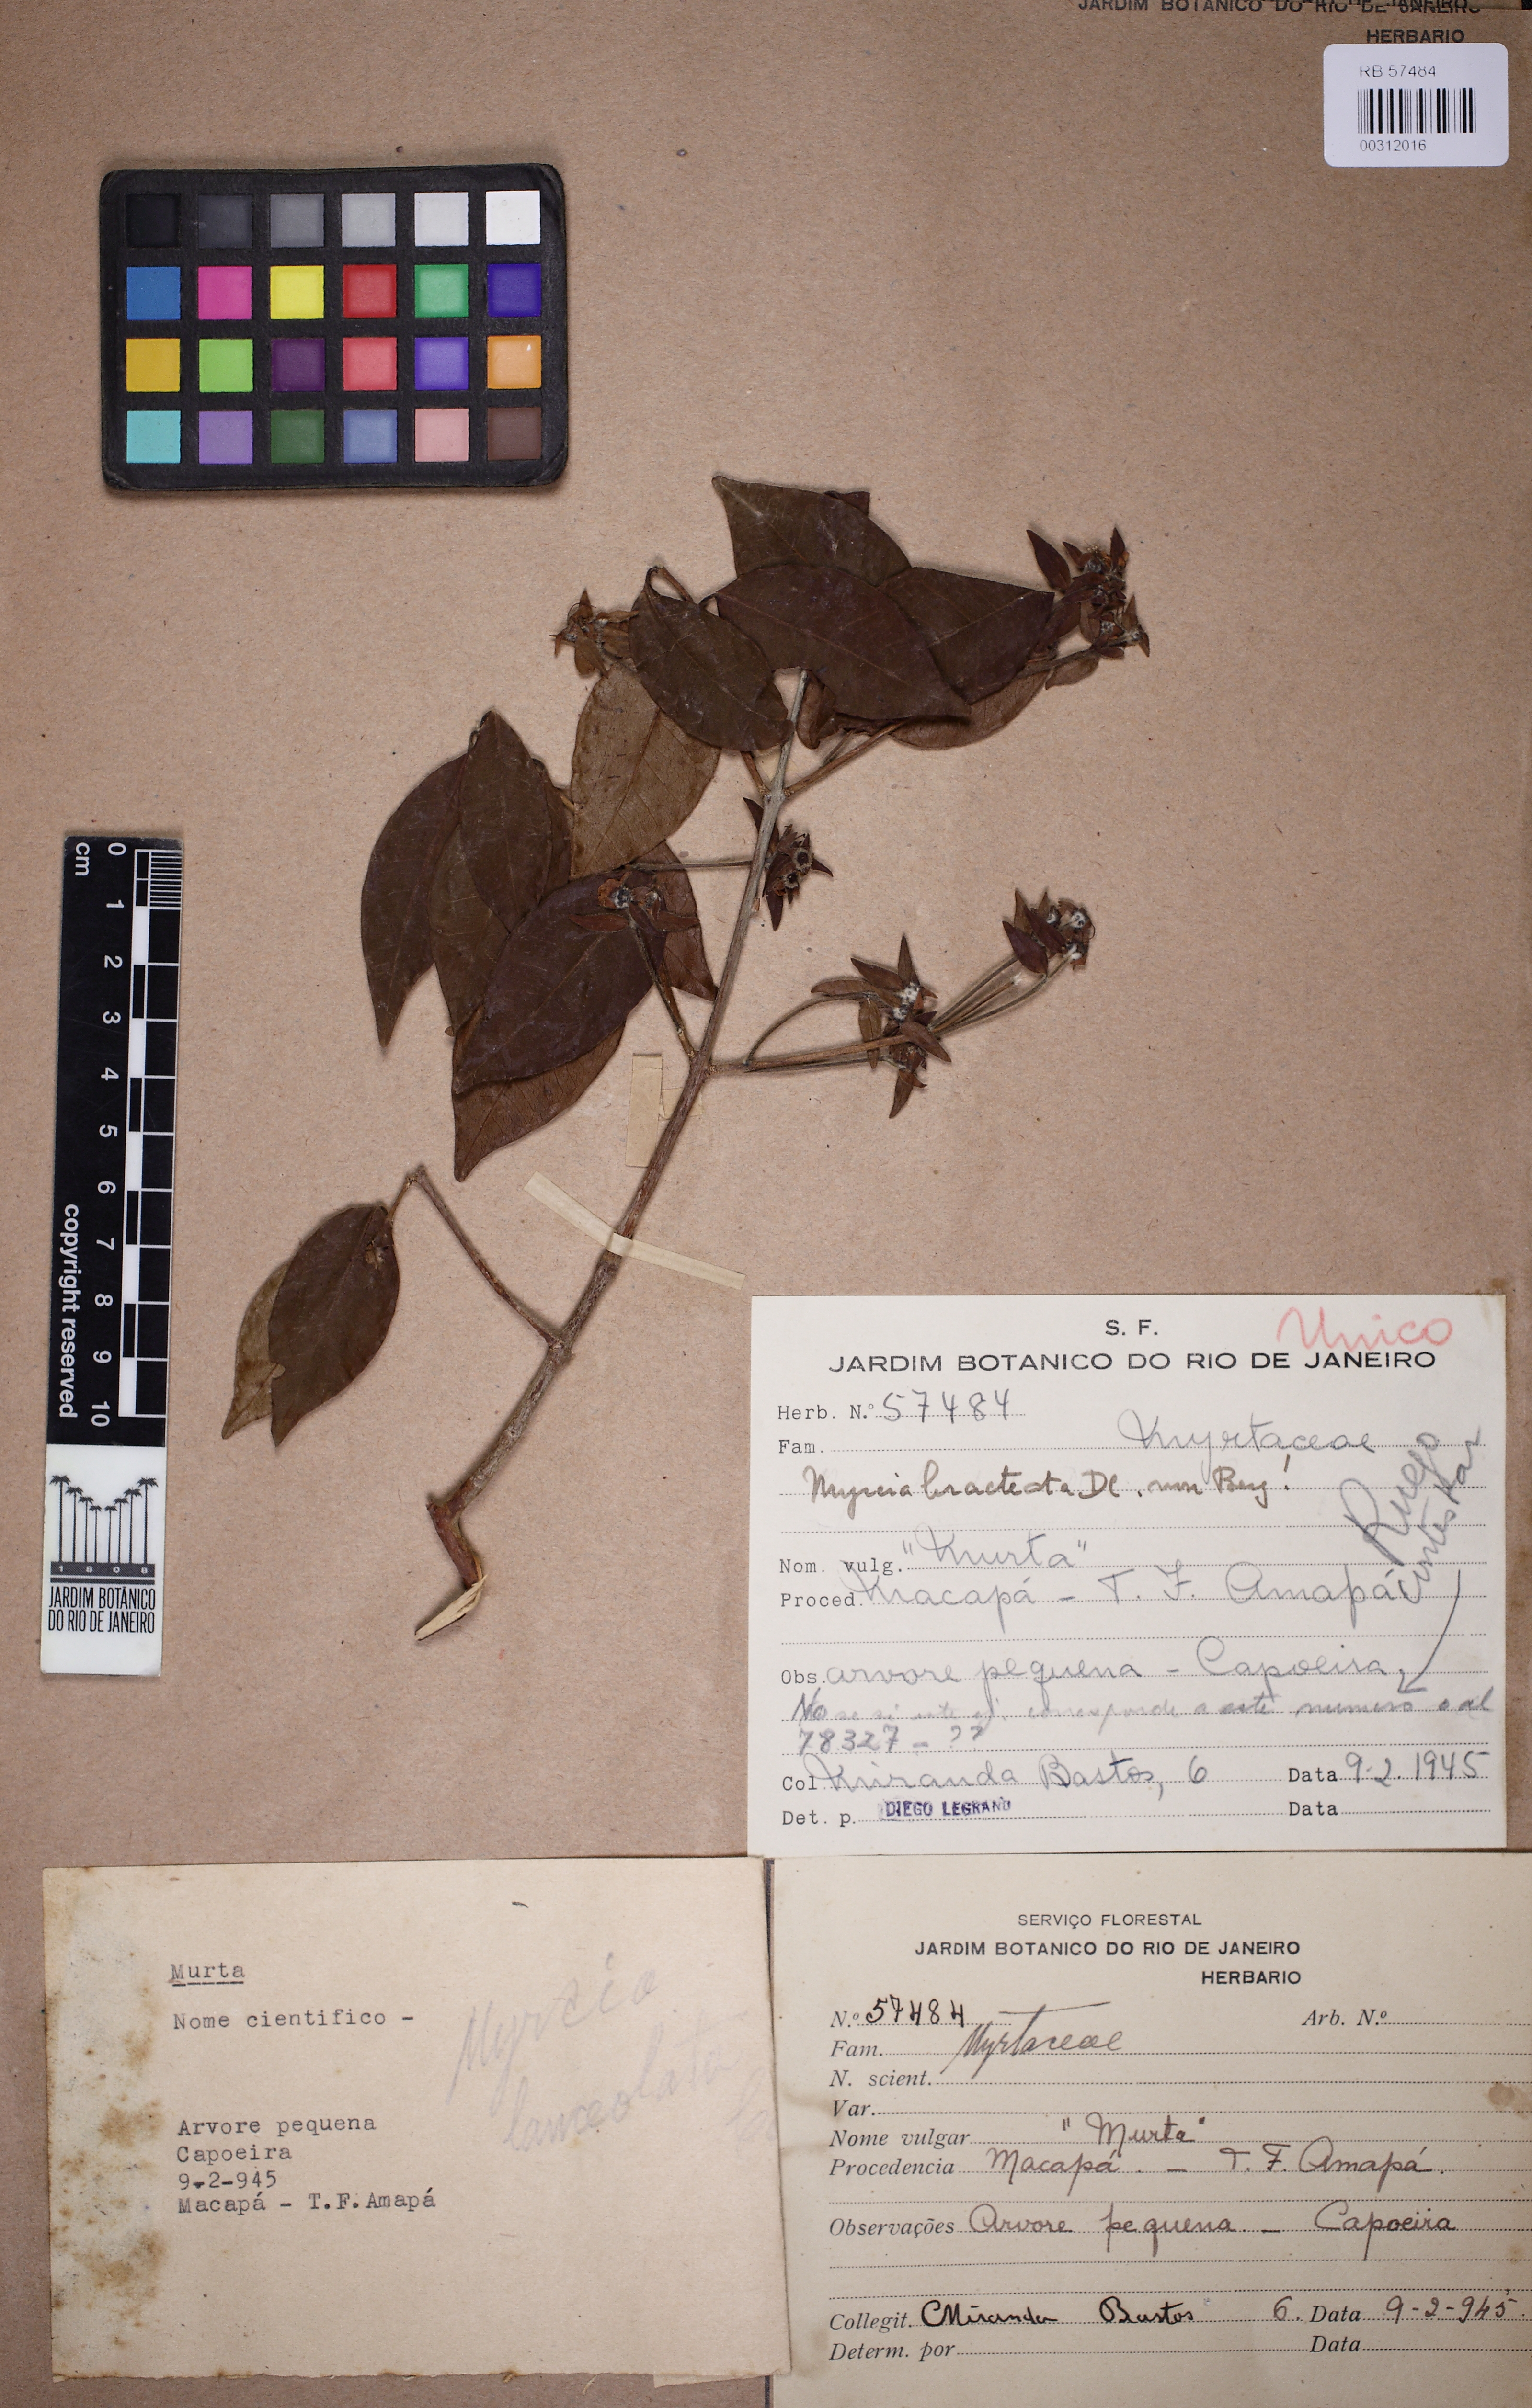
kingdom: Plantae
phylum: Tracheophyta
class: Magnoliopsida
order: Myrtales
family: Myrtaceae
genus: Myrcia
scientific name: Myrcia bracteata
